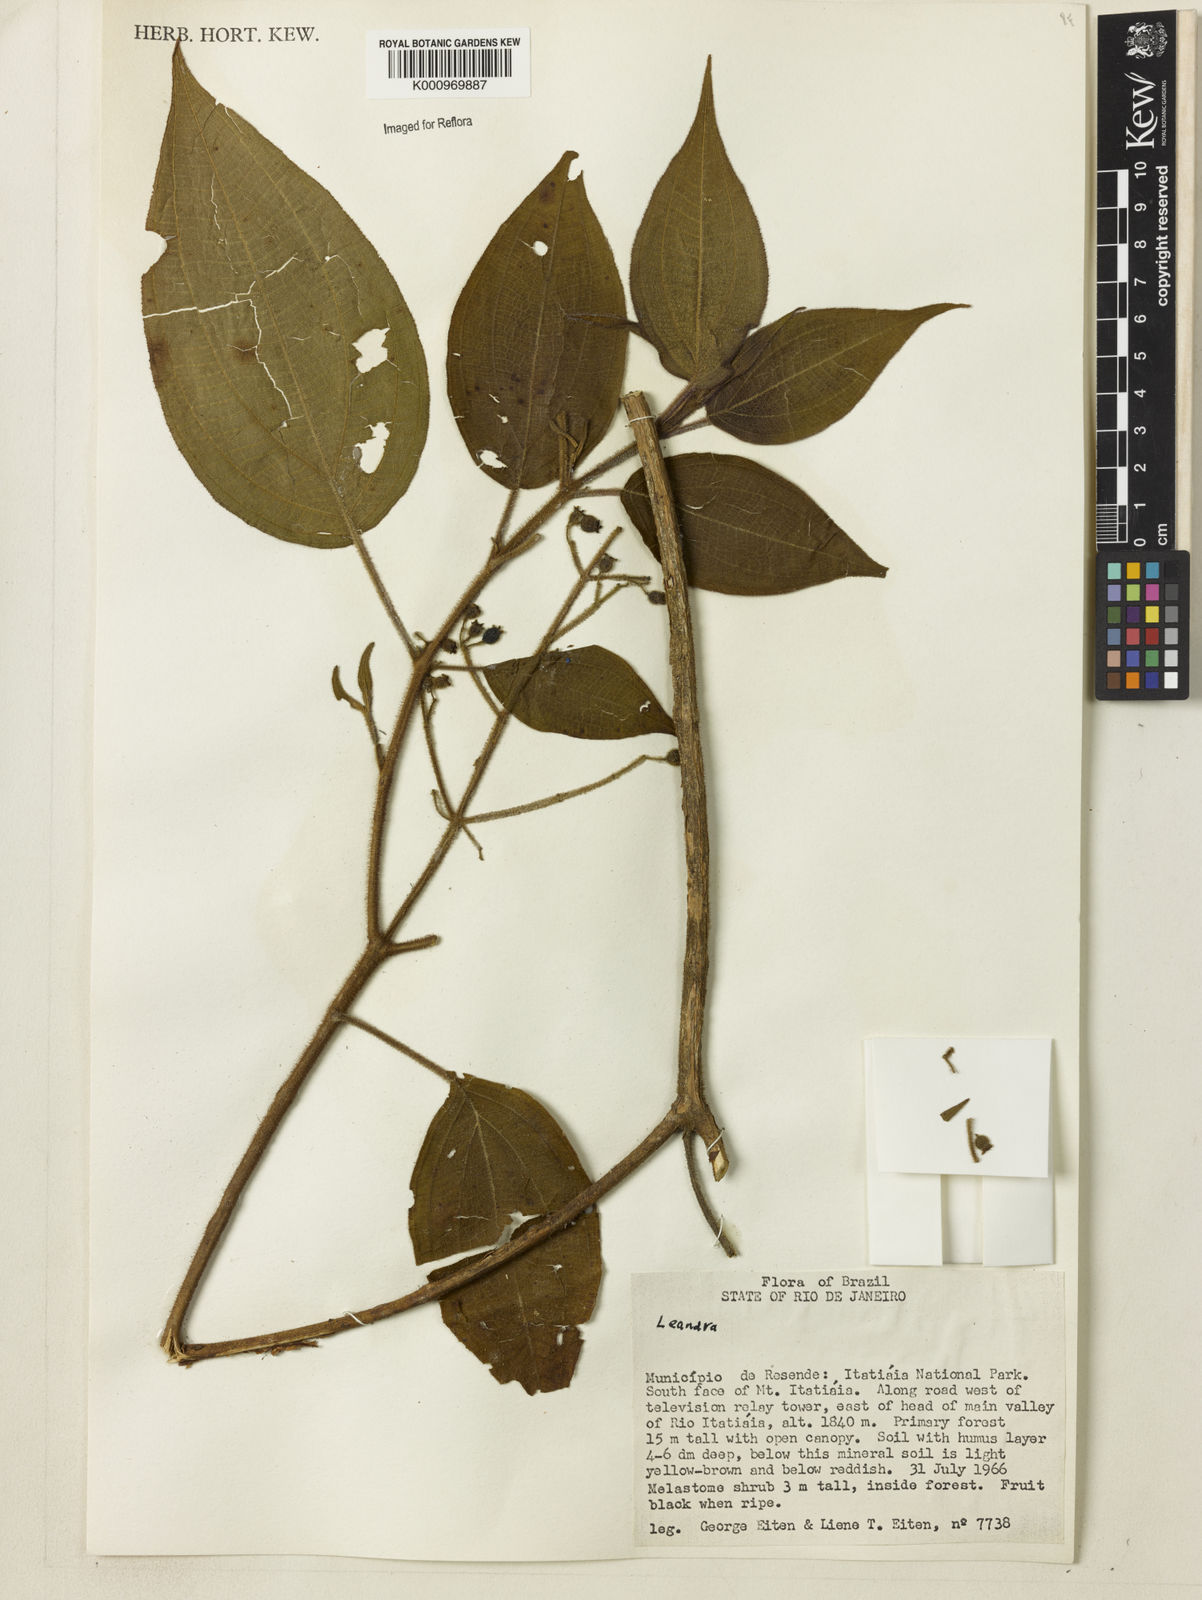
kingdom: Plantae
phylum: Tracheophyta
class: Magnoliopsida
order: Myrtales
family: Melastomataceae
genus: Miconia
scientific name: Miconia
